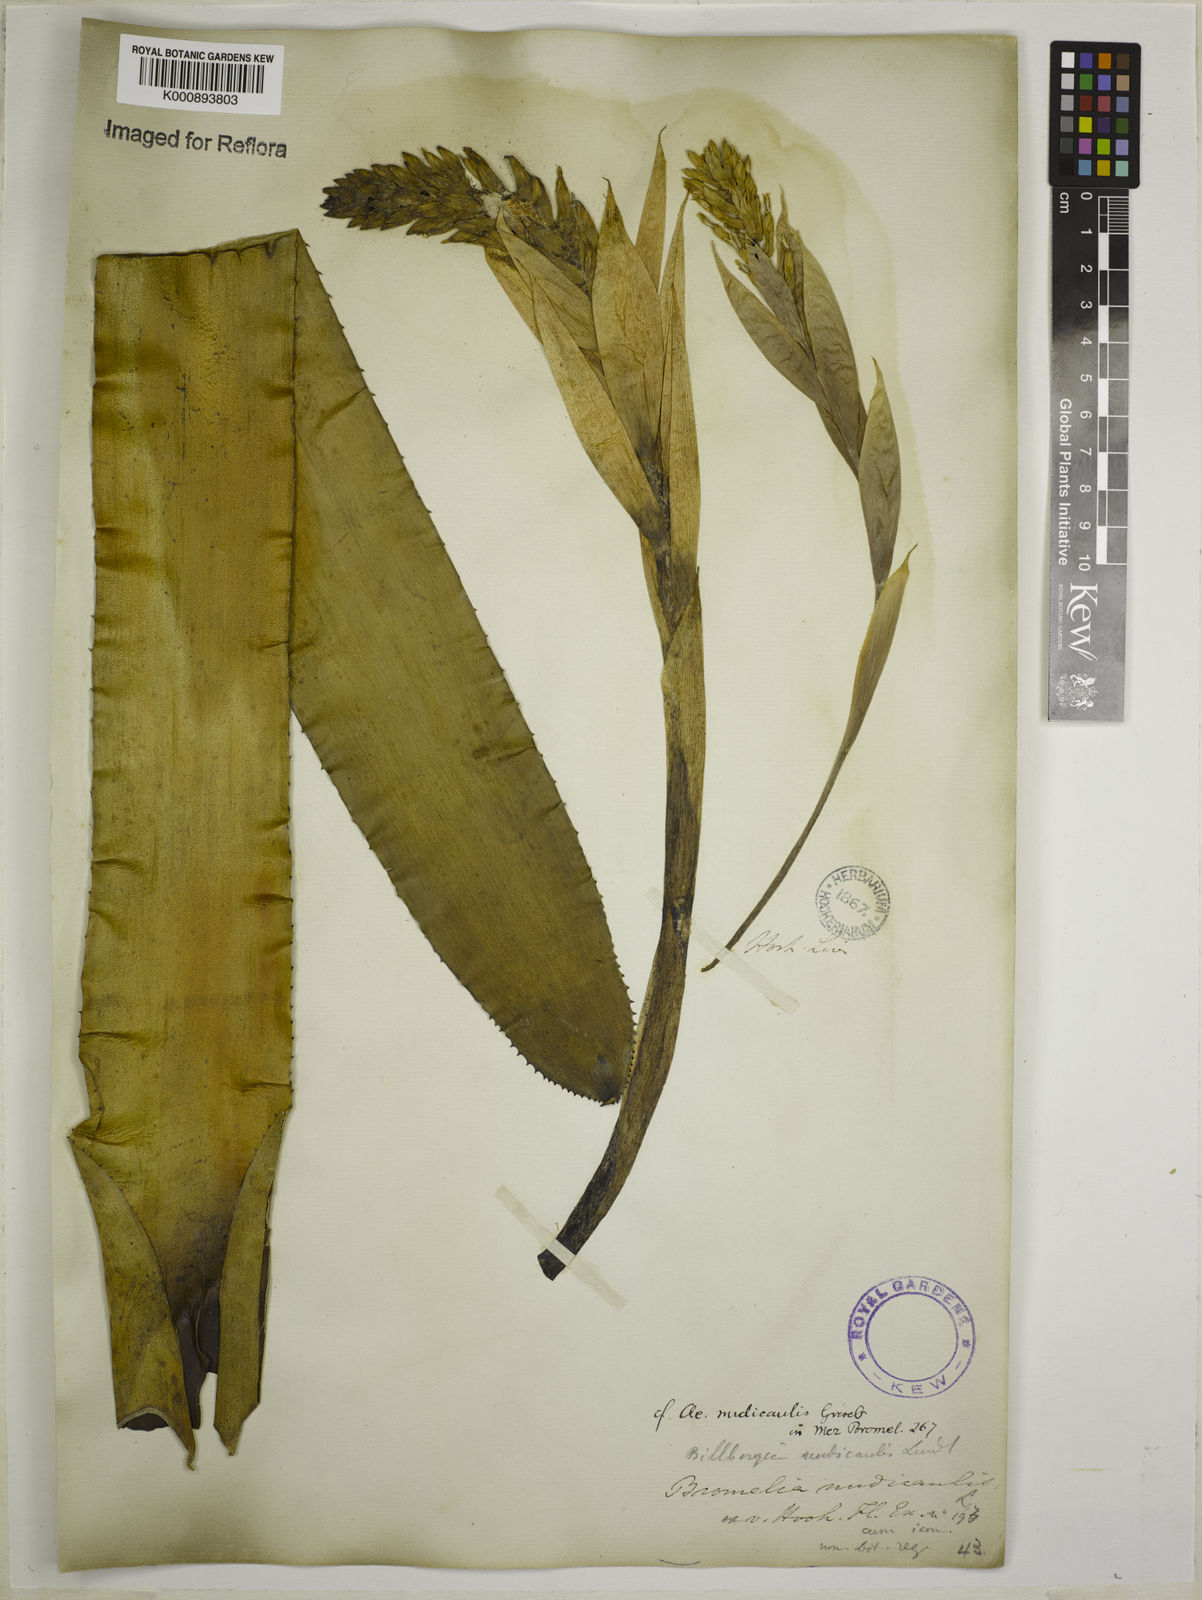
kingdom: Plantae
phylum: Tracheophyta
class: Liliopsida
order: Poales
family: Bromeliaceae
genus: Aechmea
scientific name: Aechmea nudicaulis
